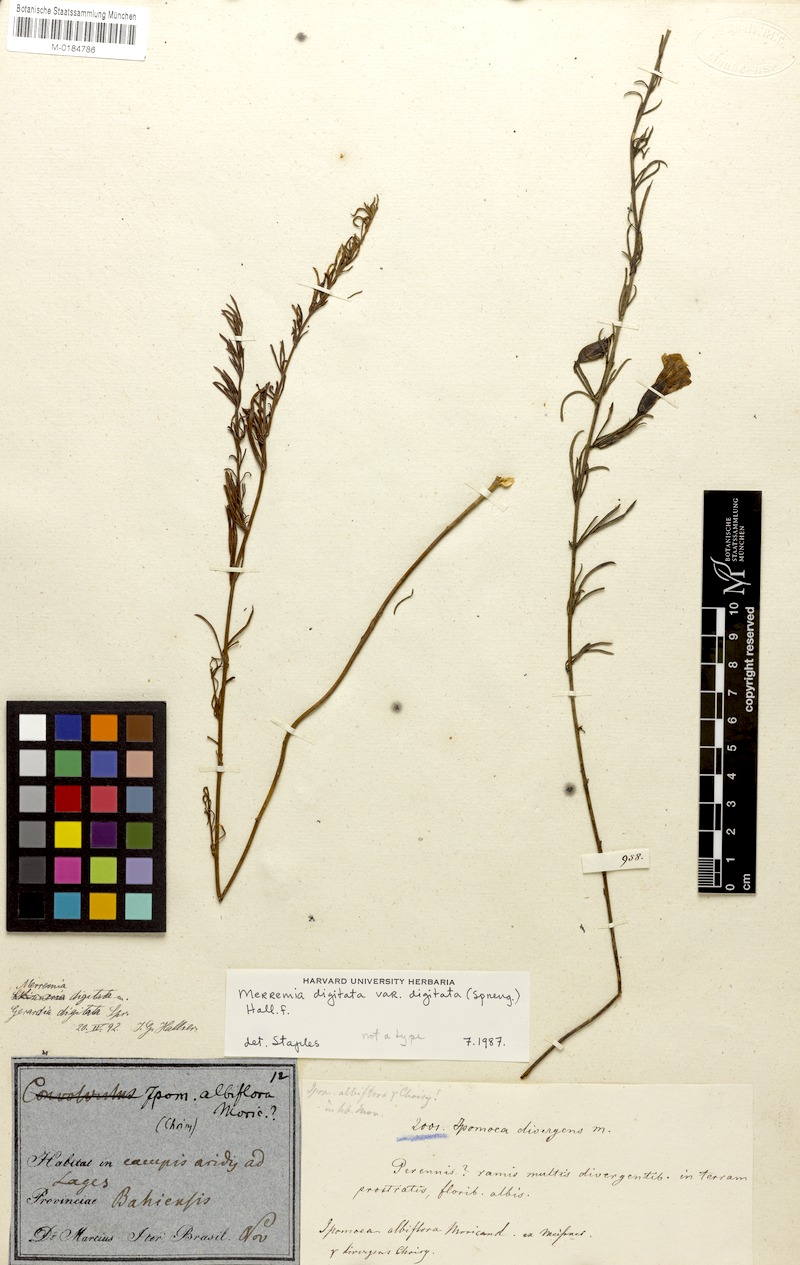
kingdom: Plantae
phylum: Tracheophyta
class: Magnoliopsida
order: Solanales
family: Convolvulaceae
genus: Distimake
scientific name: Distimake digitatus
